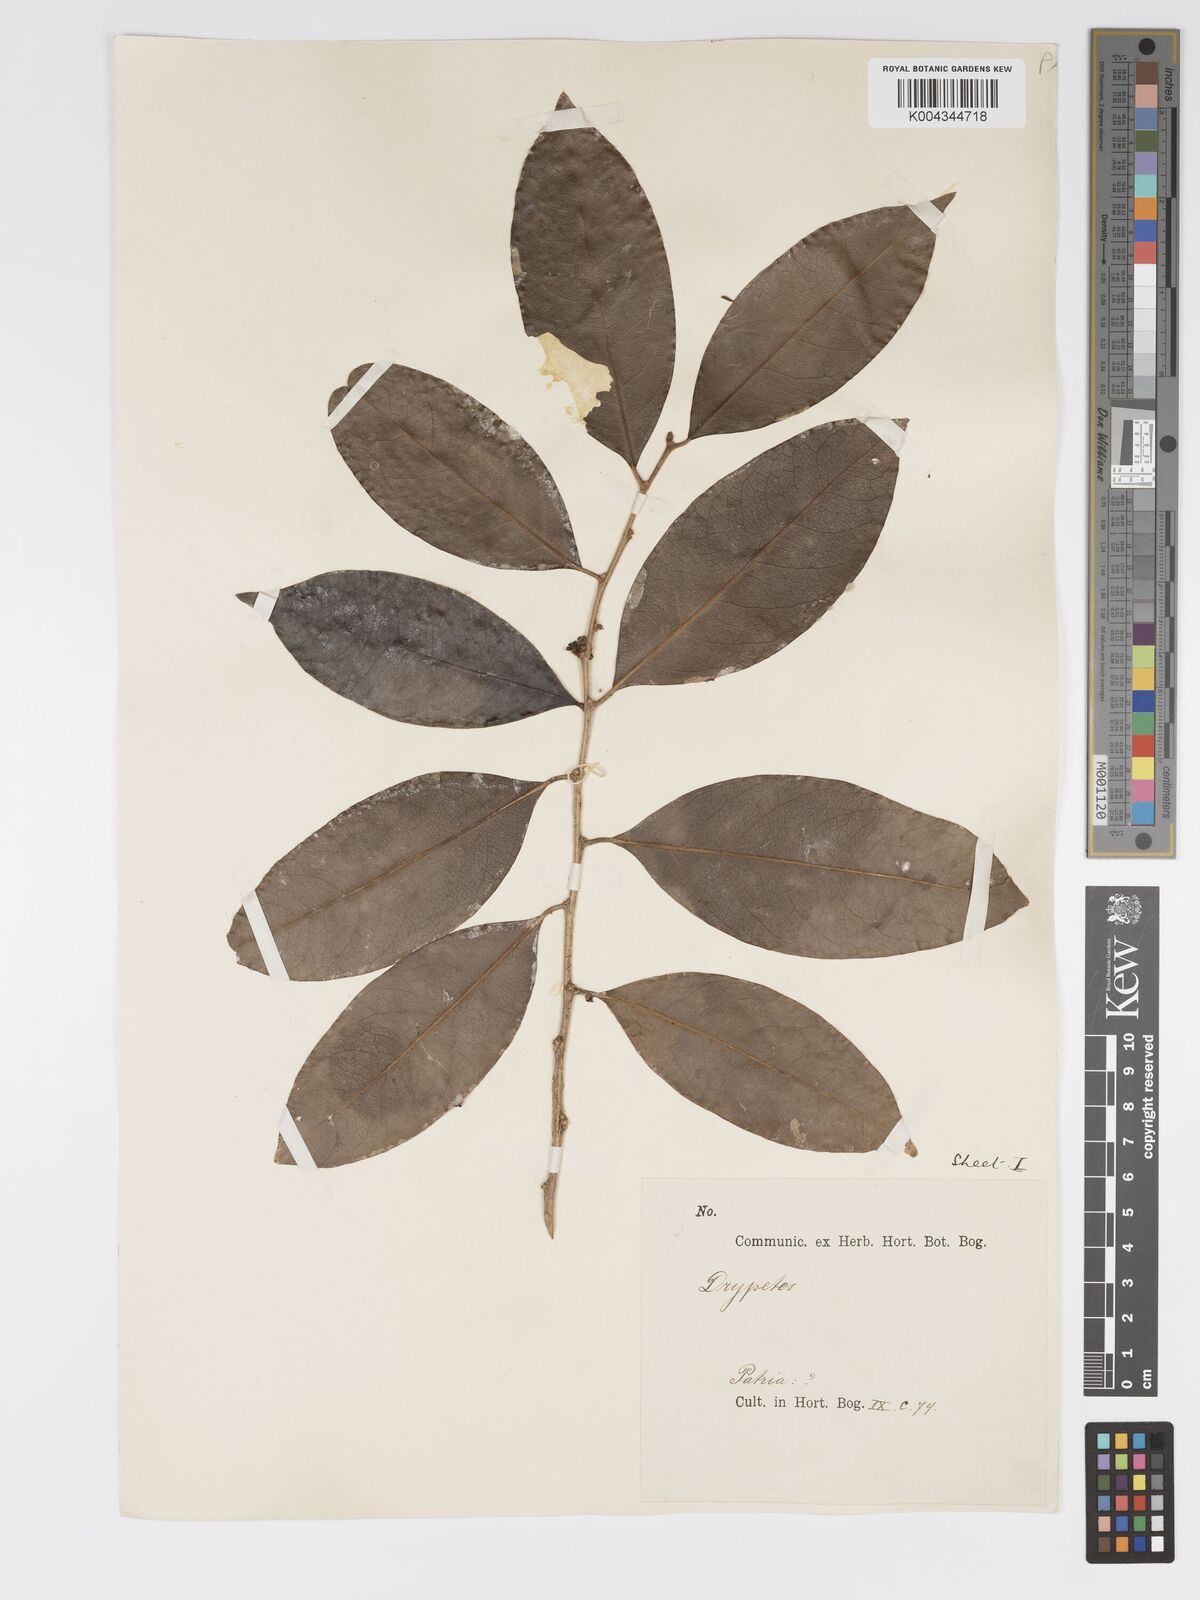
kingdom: Plantae
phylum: Tracheophyta
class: Magnoliopsida
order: Malpighiales
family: Putranjivaceae
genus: Drypetes
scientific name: Drypetes subcubica
